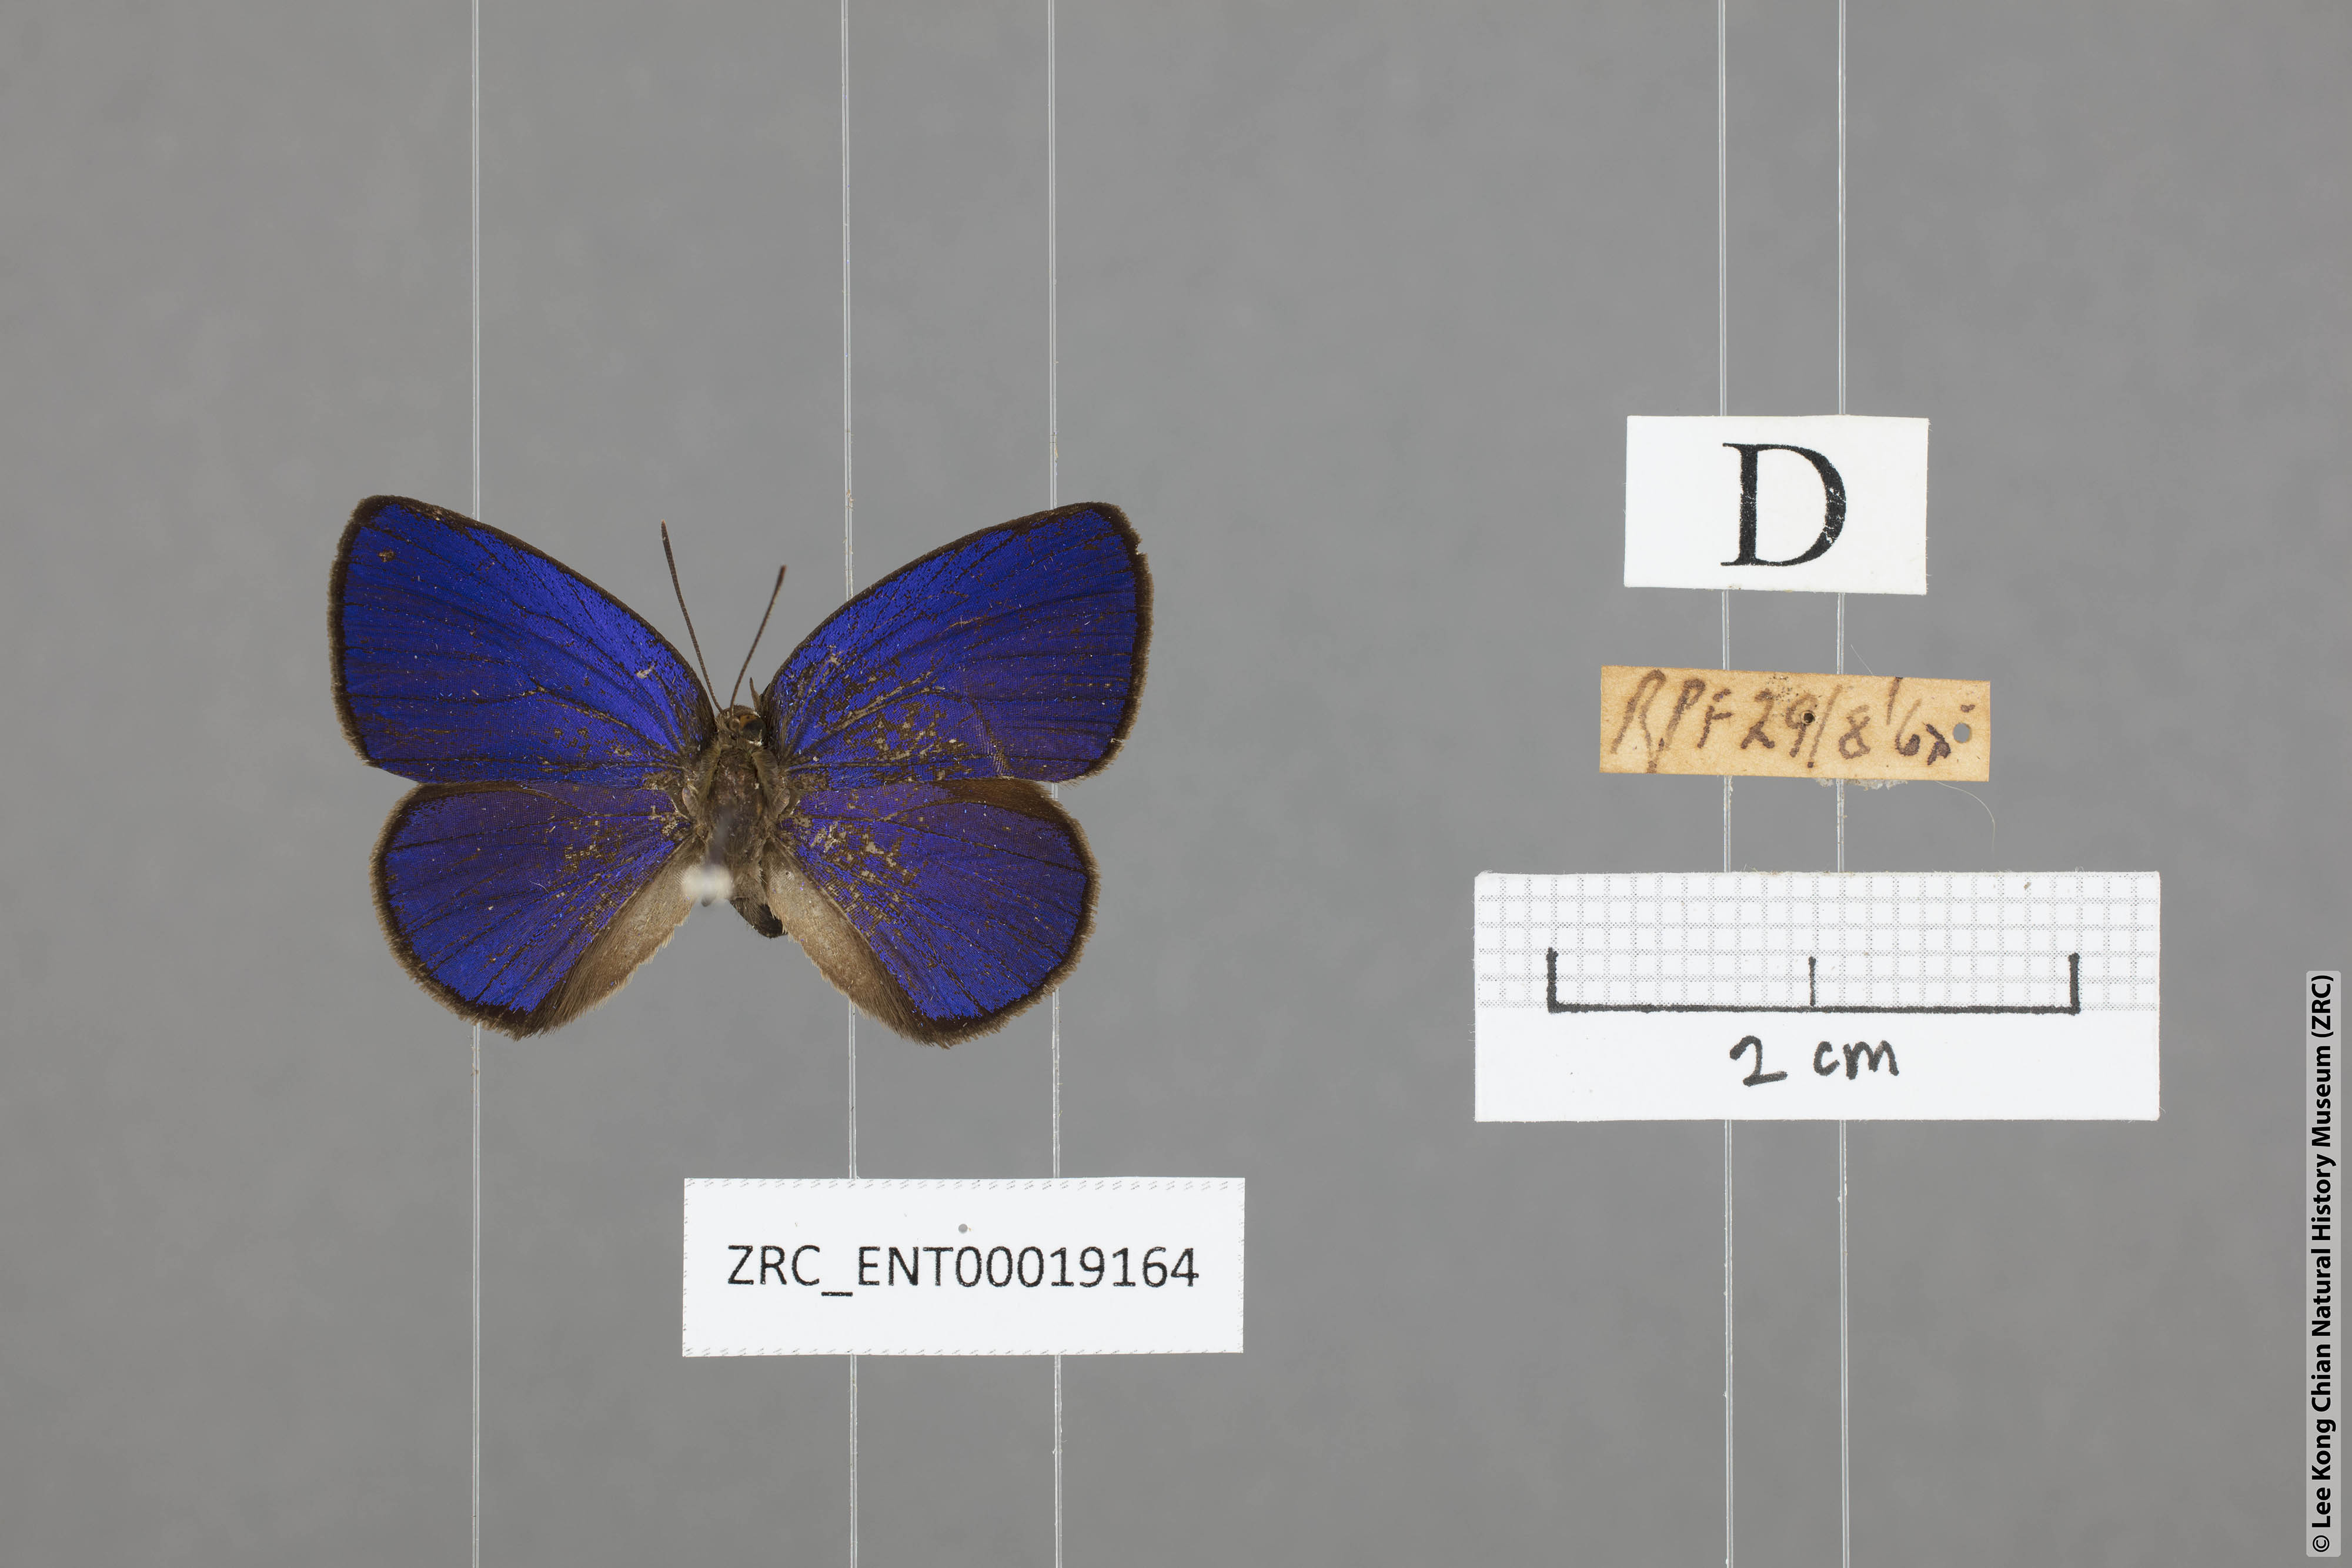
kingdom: Animalia
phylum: Arthropoda
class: Insecta
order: Lepidoptera
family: Lycaenidae
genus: Arhopala
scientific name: Arhopala antimuta
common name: Small tailless oakblue
